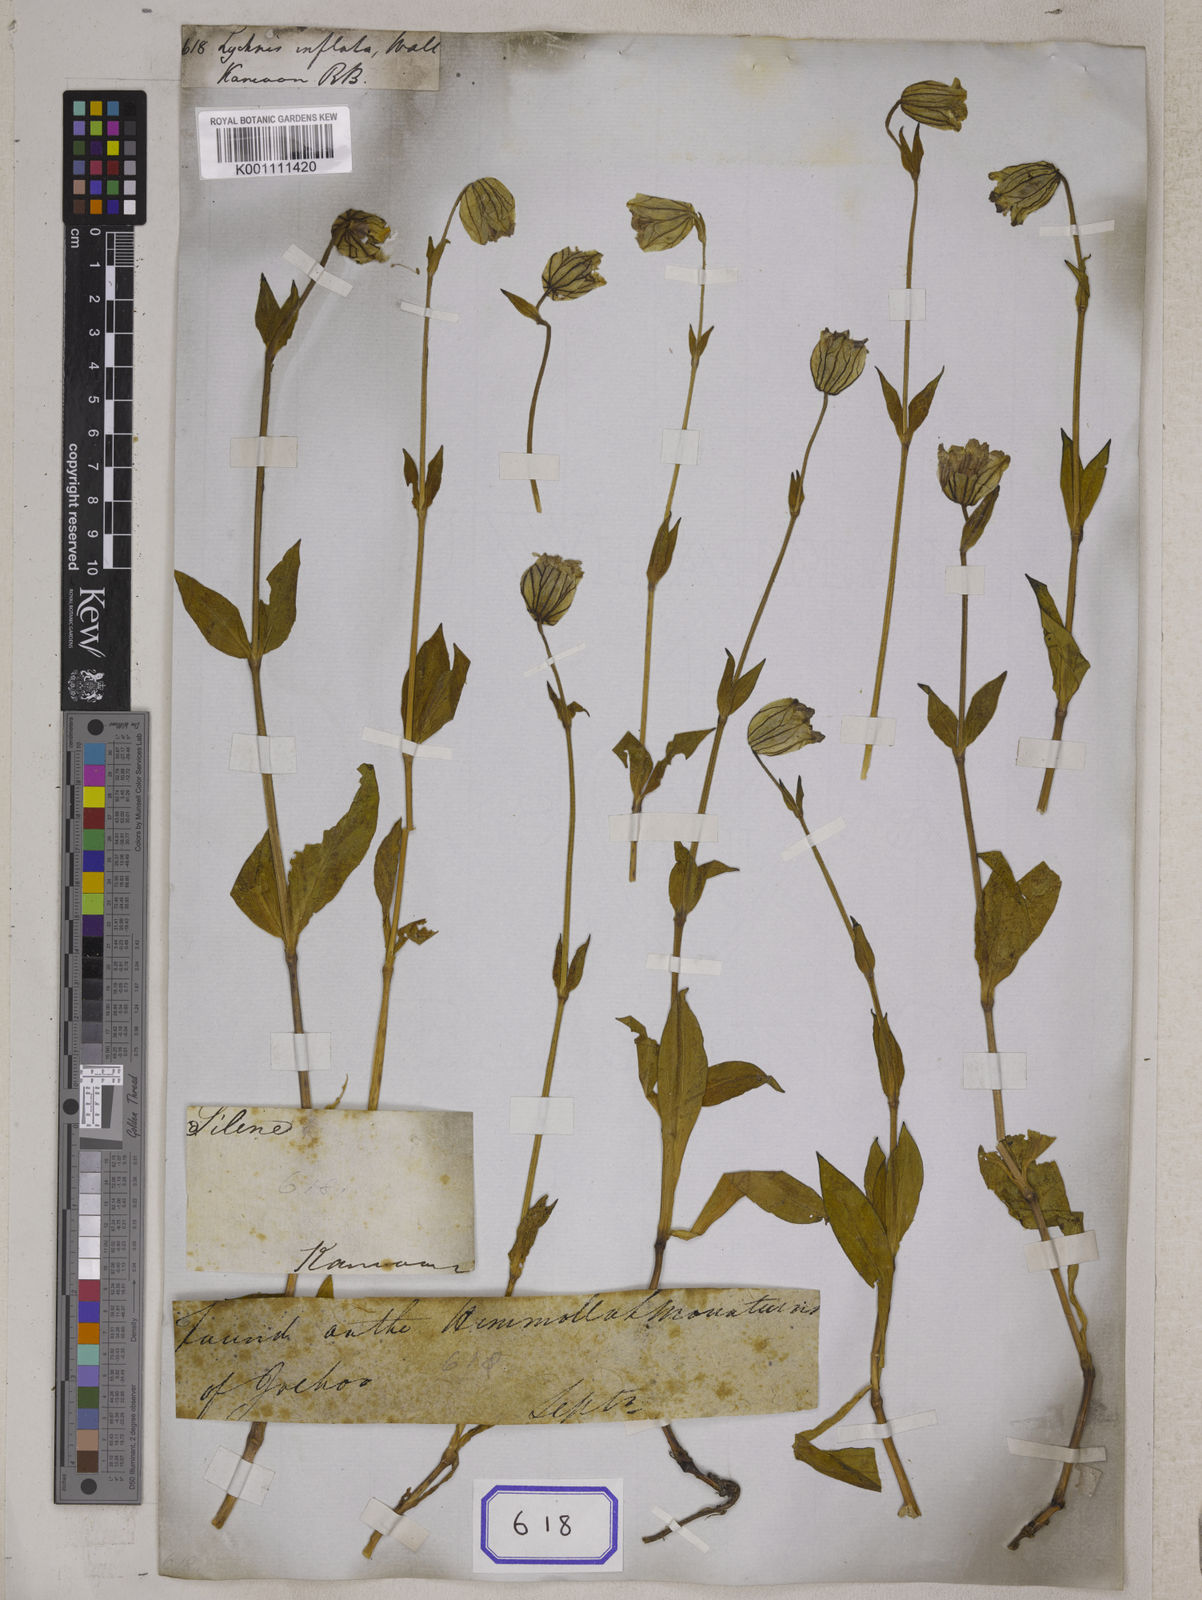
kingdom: Plantae
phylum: Tracheophyta
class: Magnoliopsida
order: Caryophyllales
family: Caryophyllaceae
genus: Silene
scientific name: Silene
